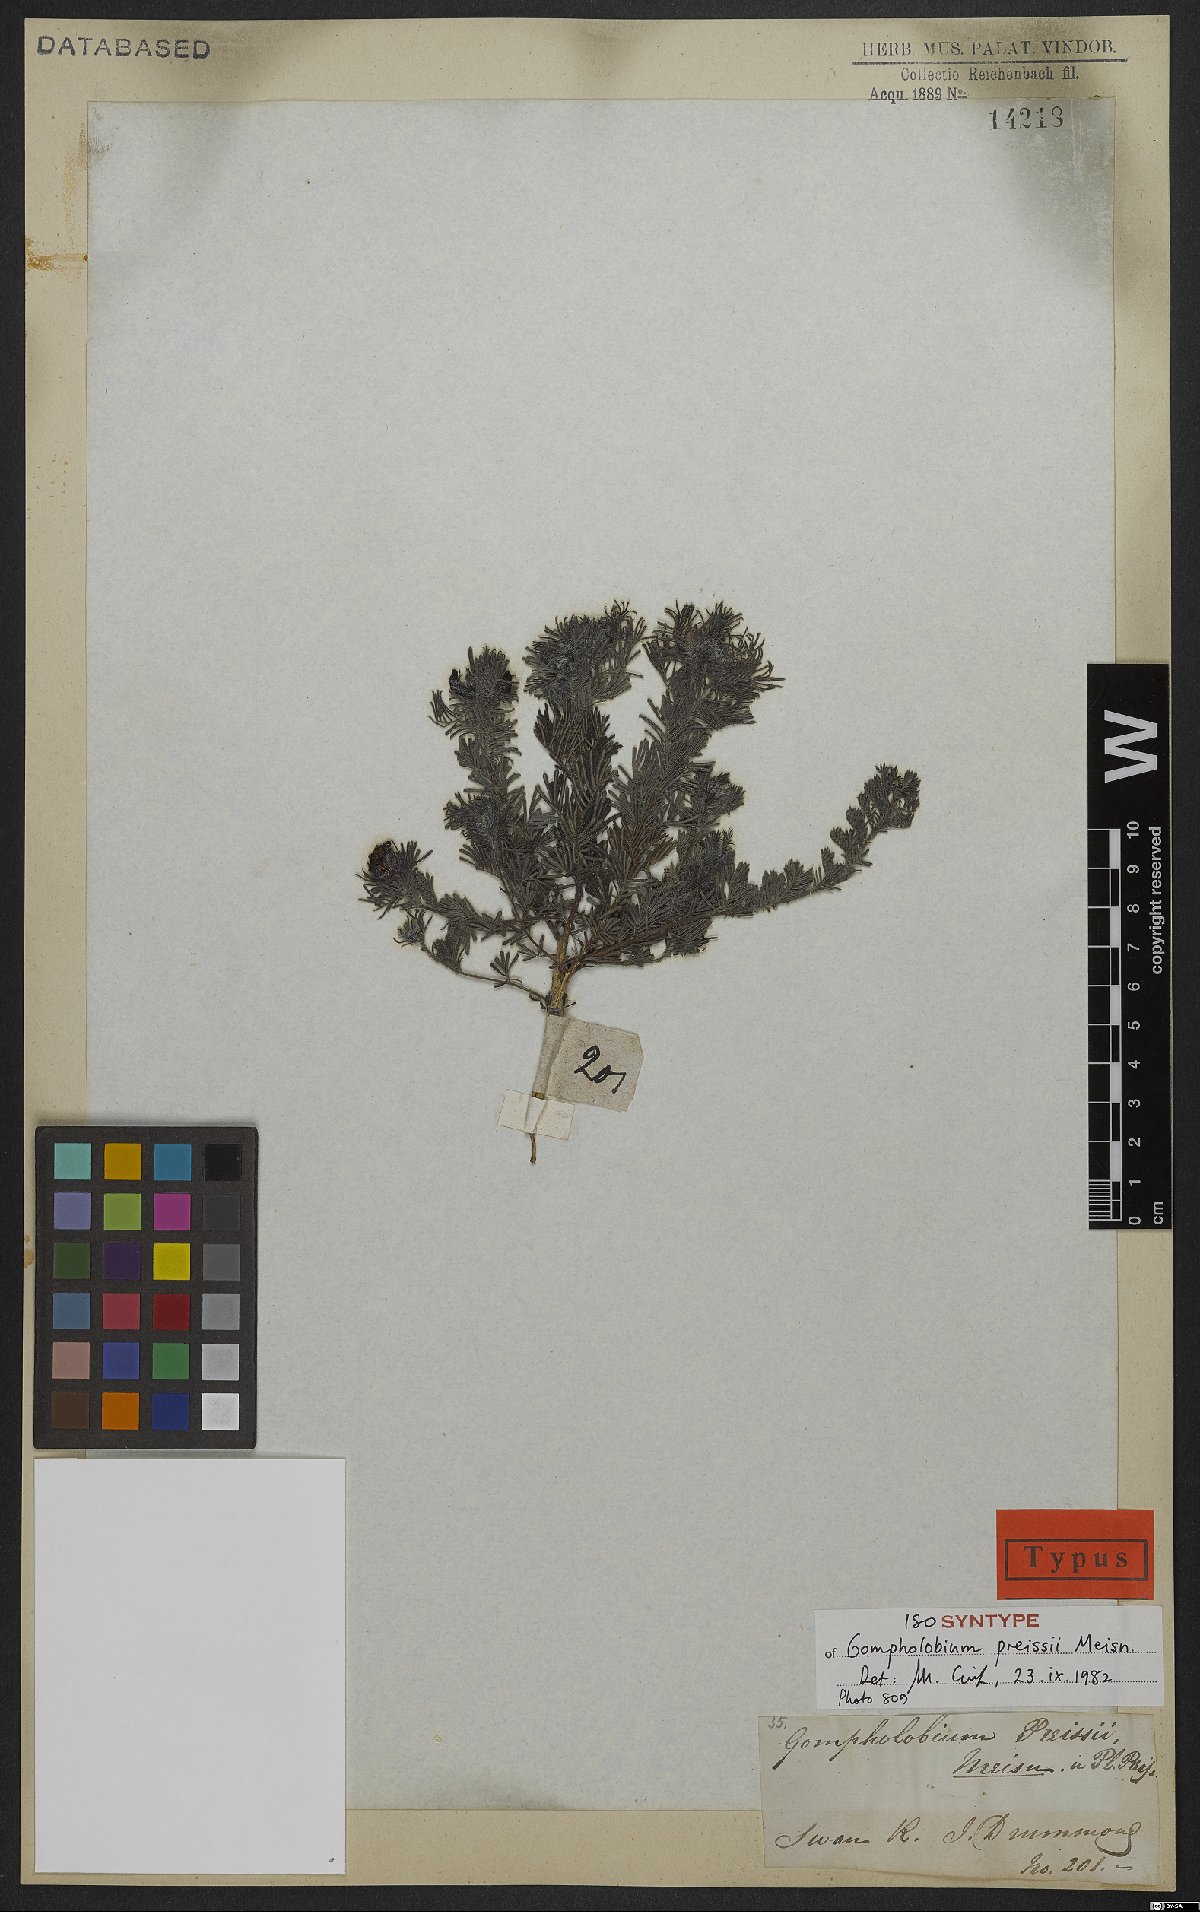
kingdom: Plantae
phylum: Tracheophyta
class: Magnoliopsida
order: Fabales
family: Fabaceae
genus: Gompholobium
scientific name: Gompholobium preissii
